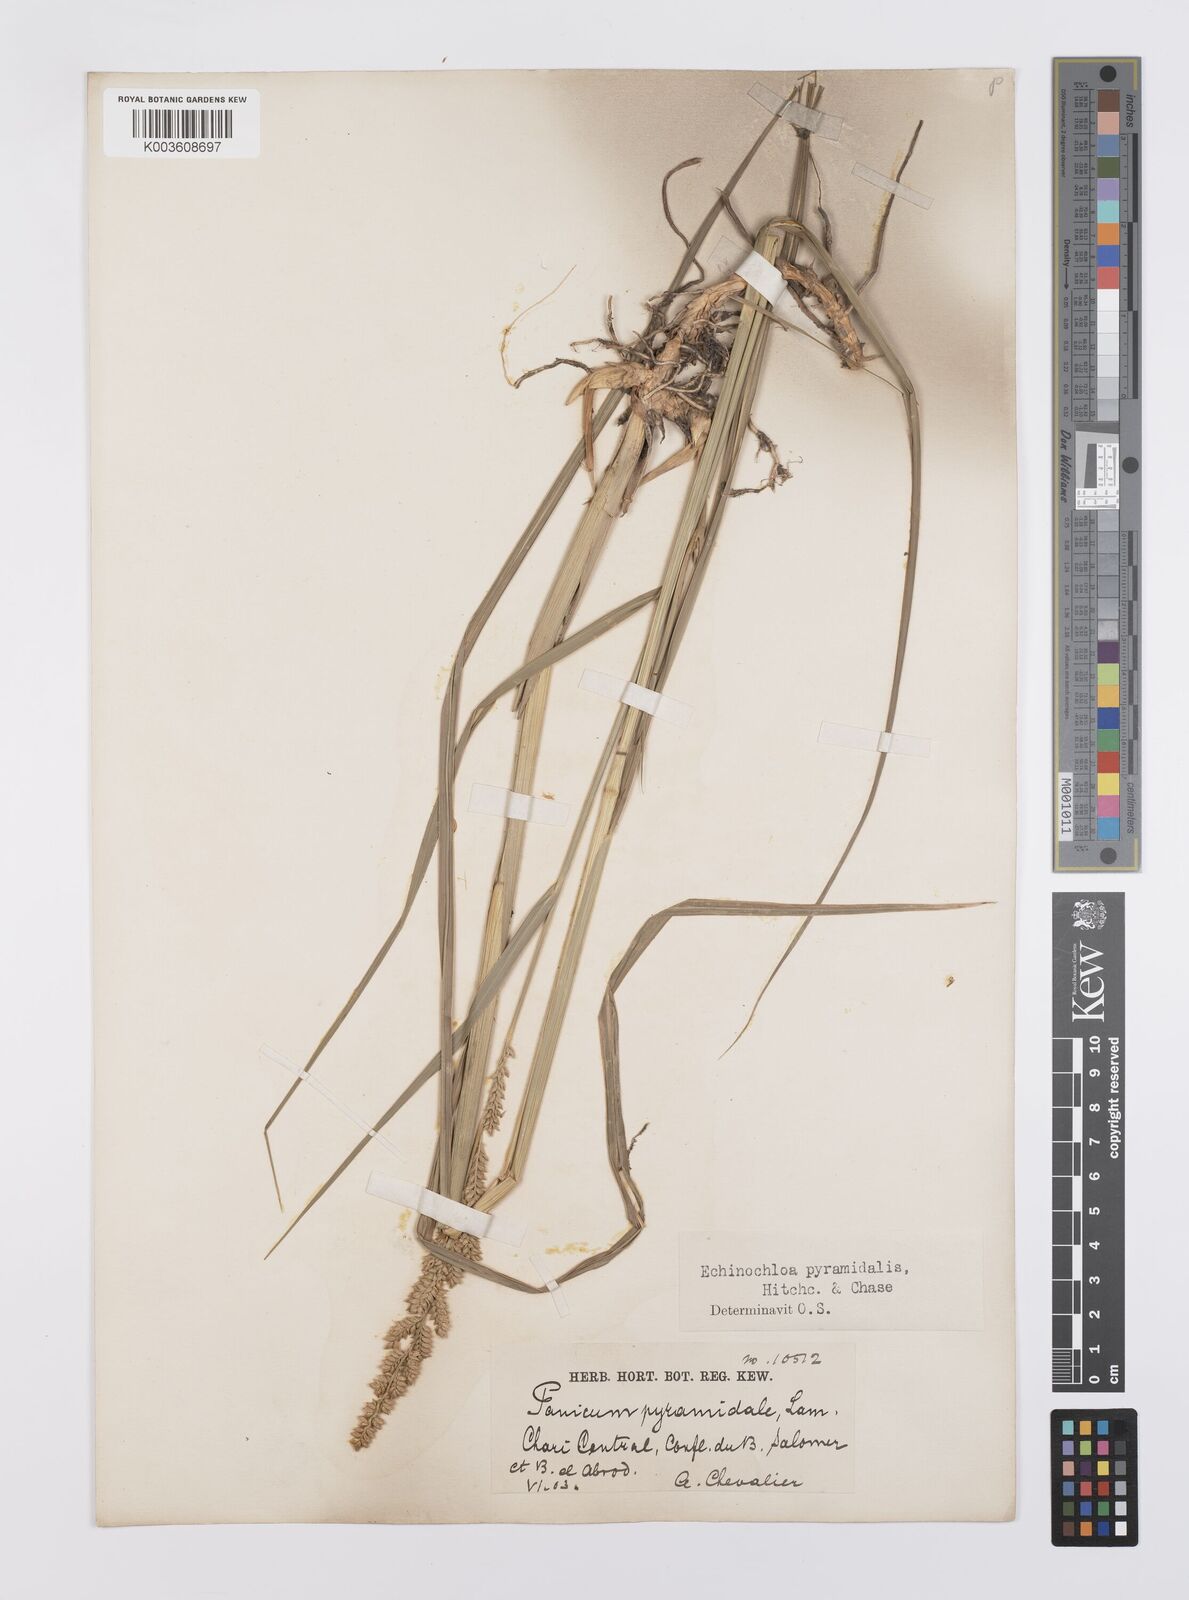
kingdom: Plantae
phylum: Tracheophyta
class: Liliopsida
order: Poales
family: Poaceae
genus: Echinochloa
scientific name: Echinochloa pyramidalis
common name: Antelope grass
